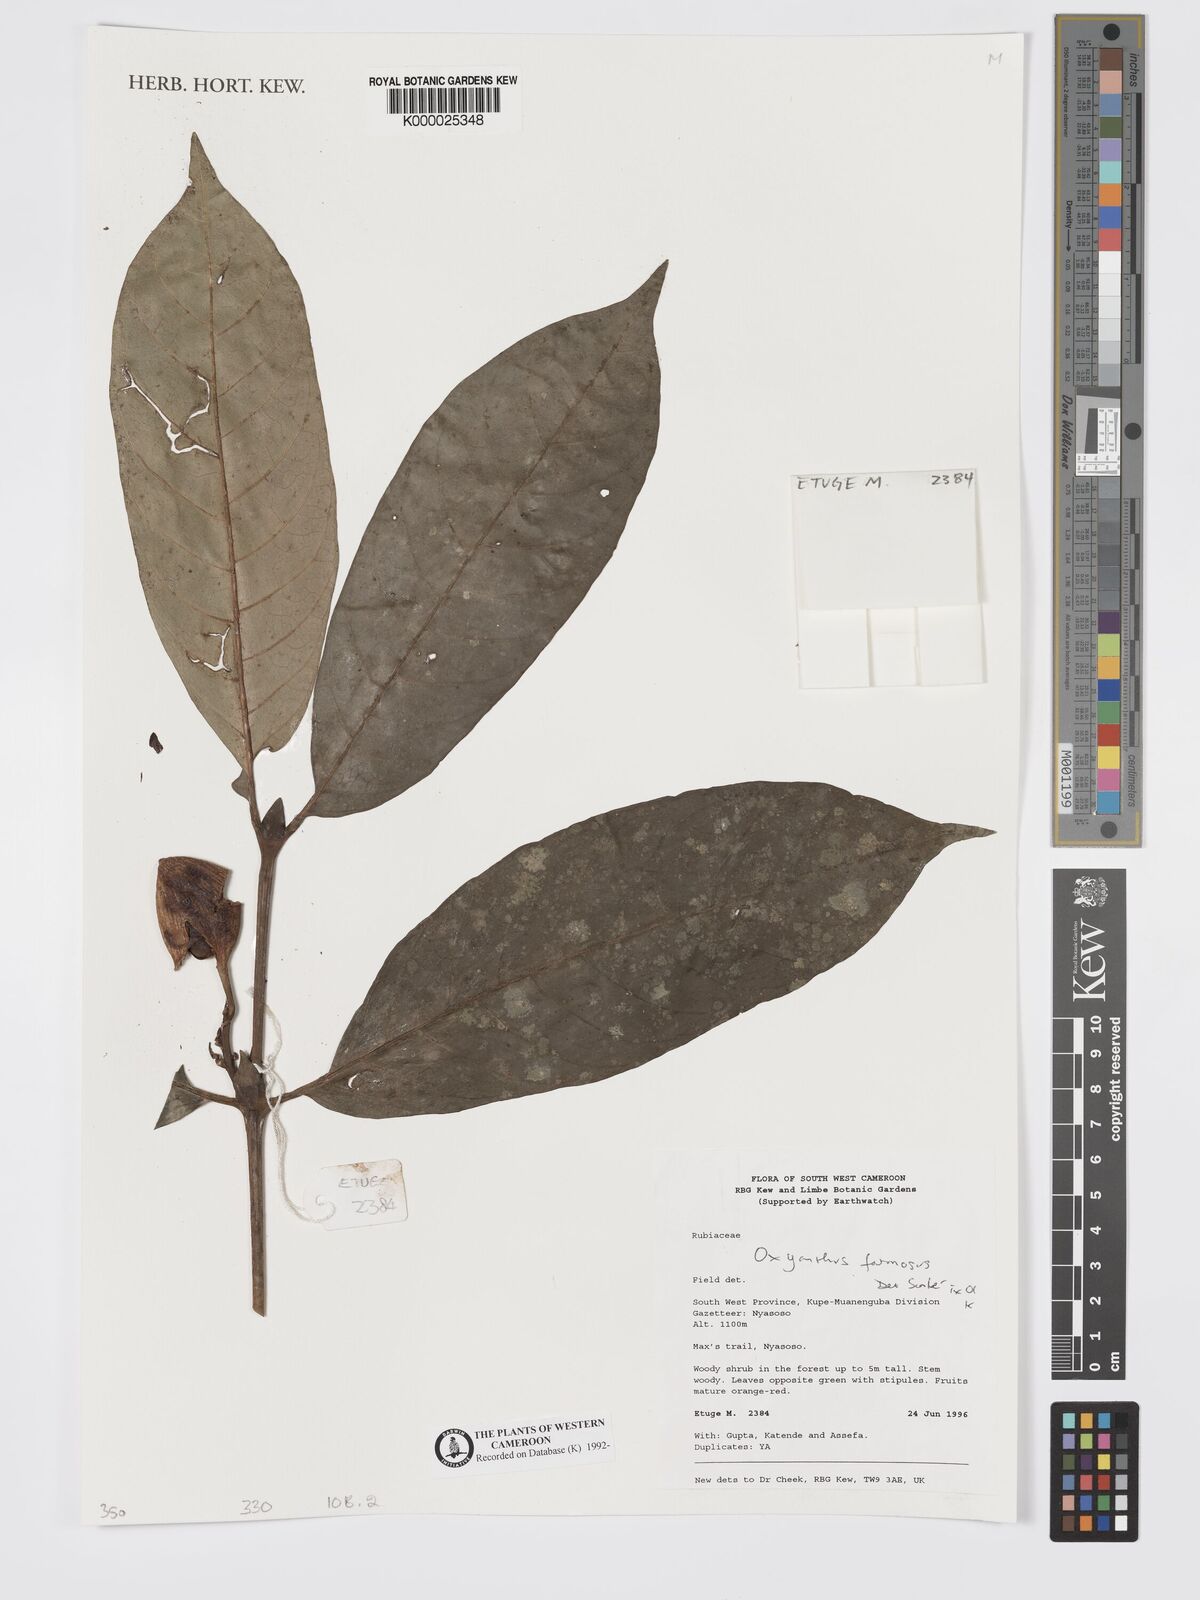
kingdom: Plantae
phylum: Tracheophyta
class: Magnoliopsida
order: Gentianales
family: Rubiaceae
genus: Oxyanthus
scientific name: Oxyanthus
